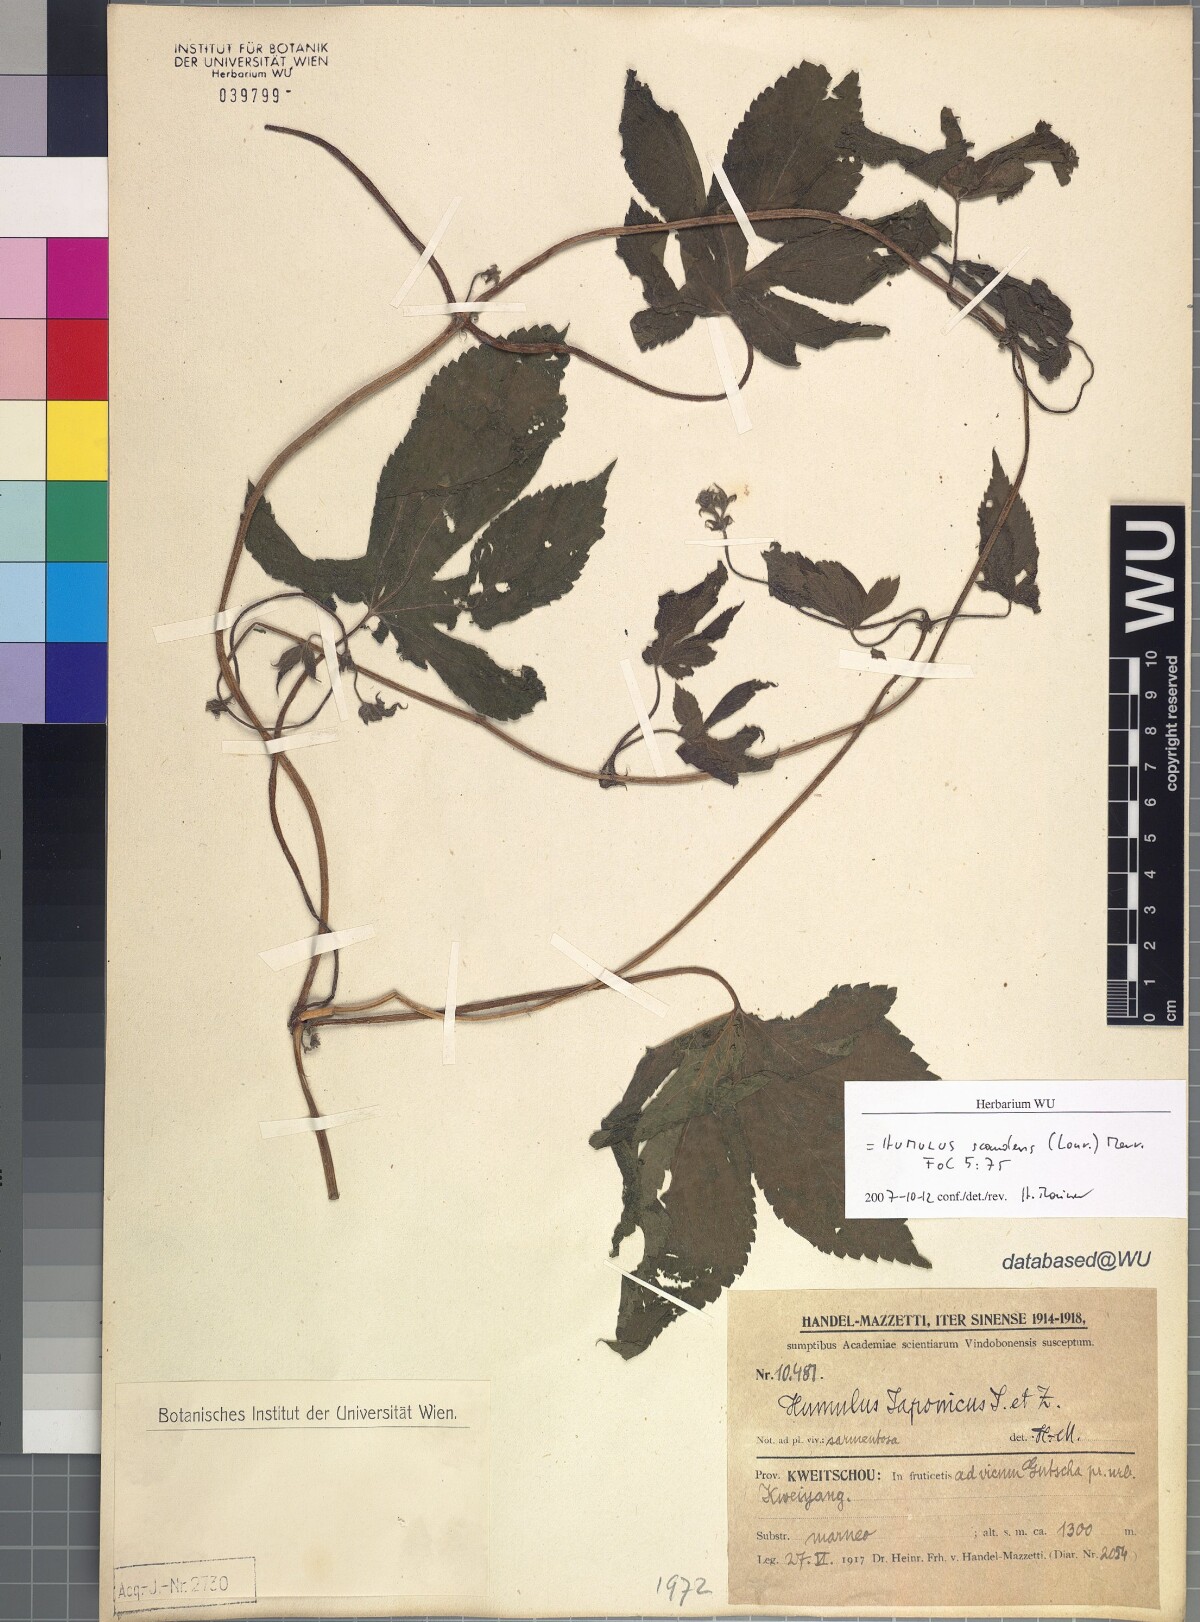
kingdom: Plantae
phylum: Tracheophyta
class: Magnoliopsida
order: Rosales
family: Cannabaceae
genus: Humulus
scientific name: Humulus scandens
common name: Japanese hop
